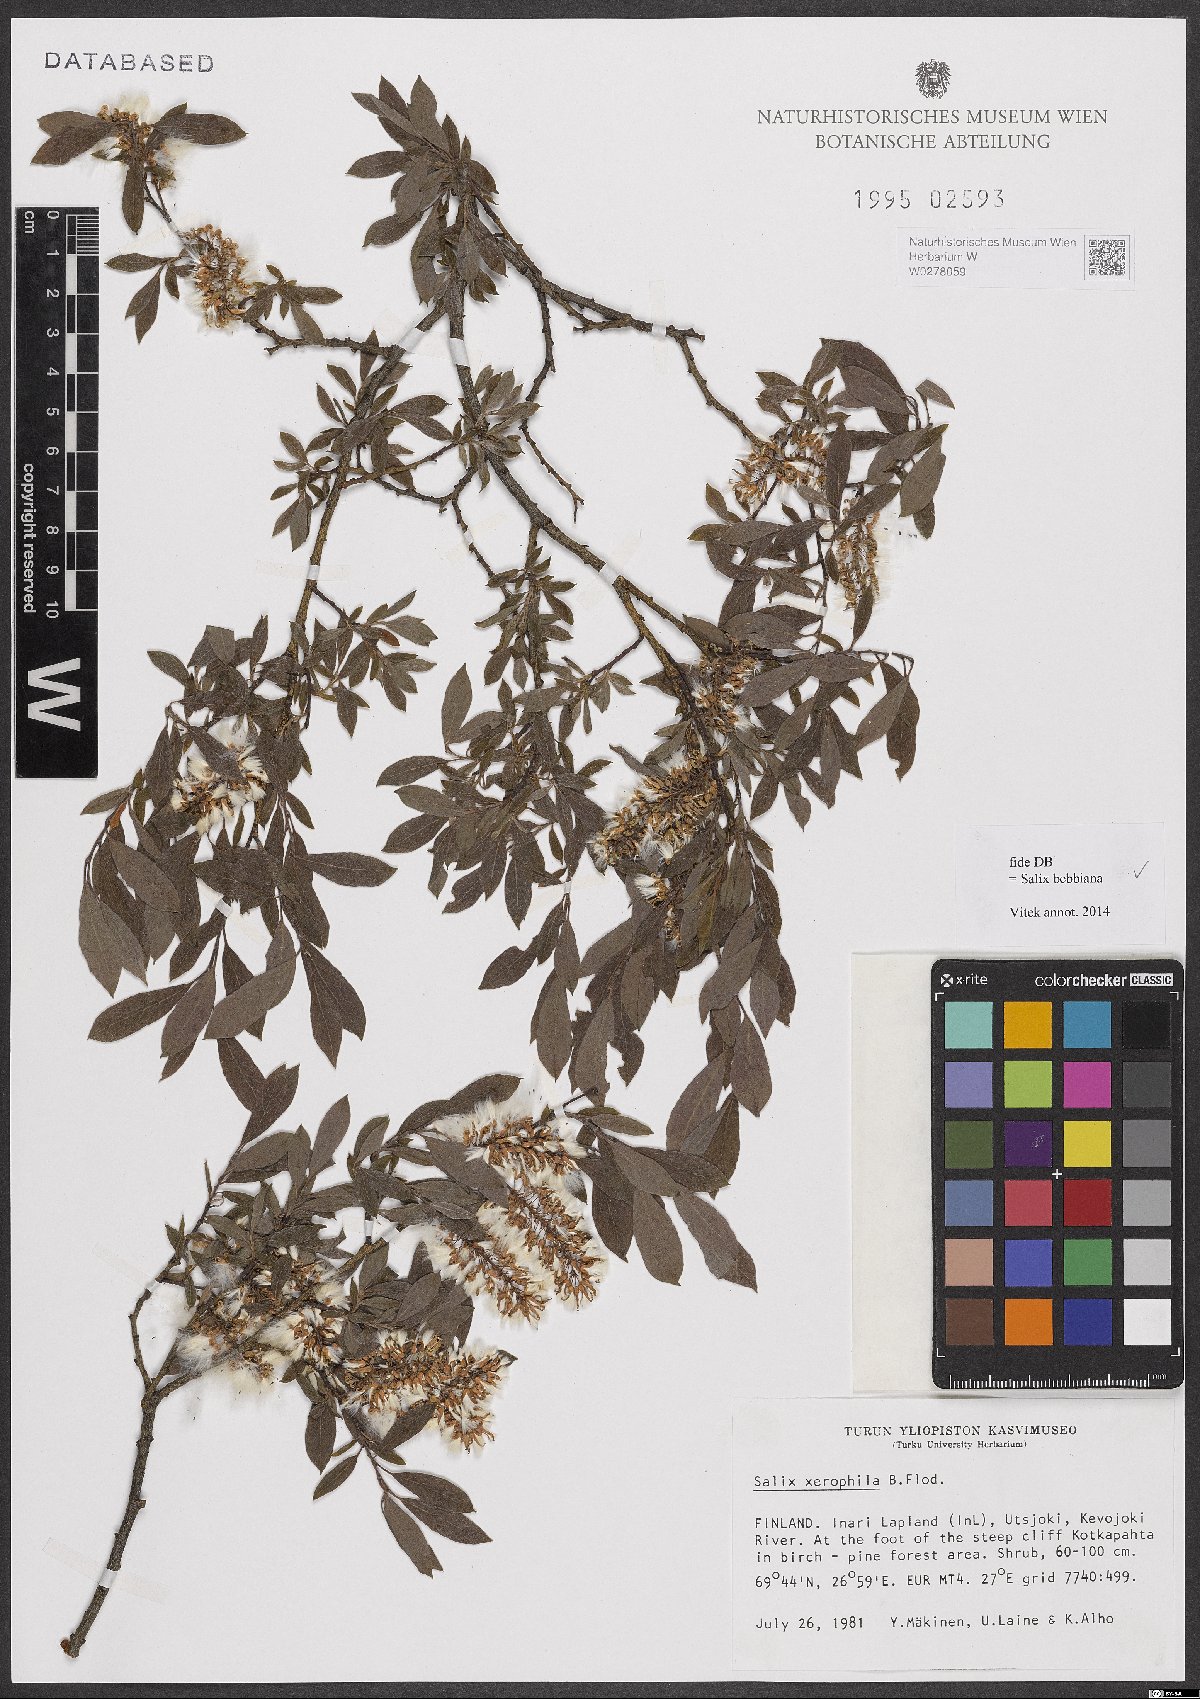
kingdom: Plantae
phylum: Tracheophyta
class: Magnoliopsida
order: Malpighiales
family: Salicaceae
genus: Salix
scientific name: Salix bebbiana
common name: Bebb's willow
